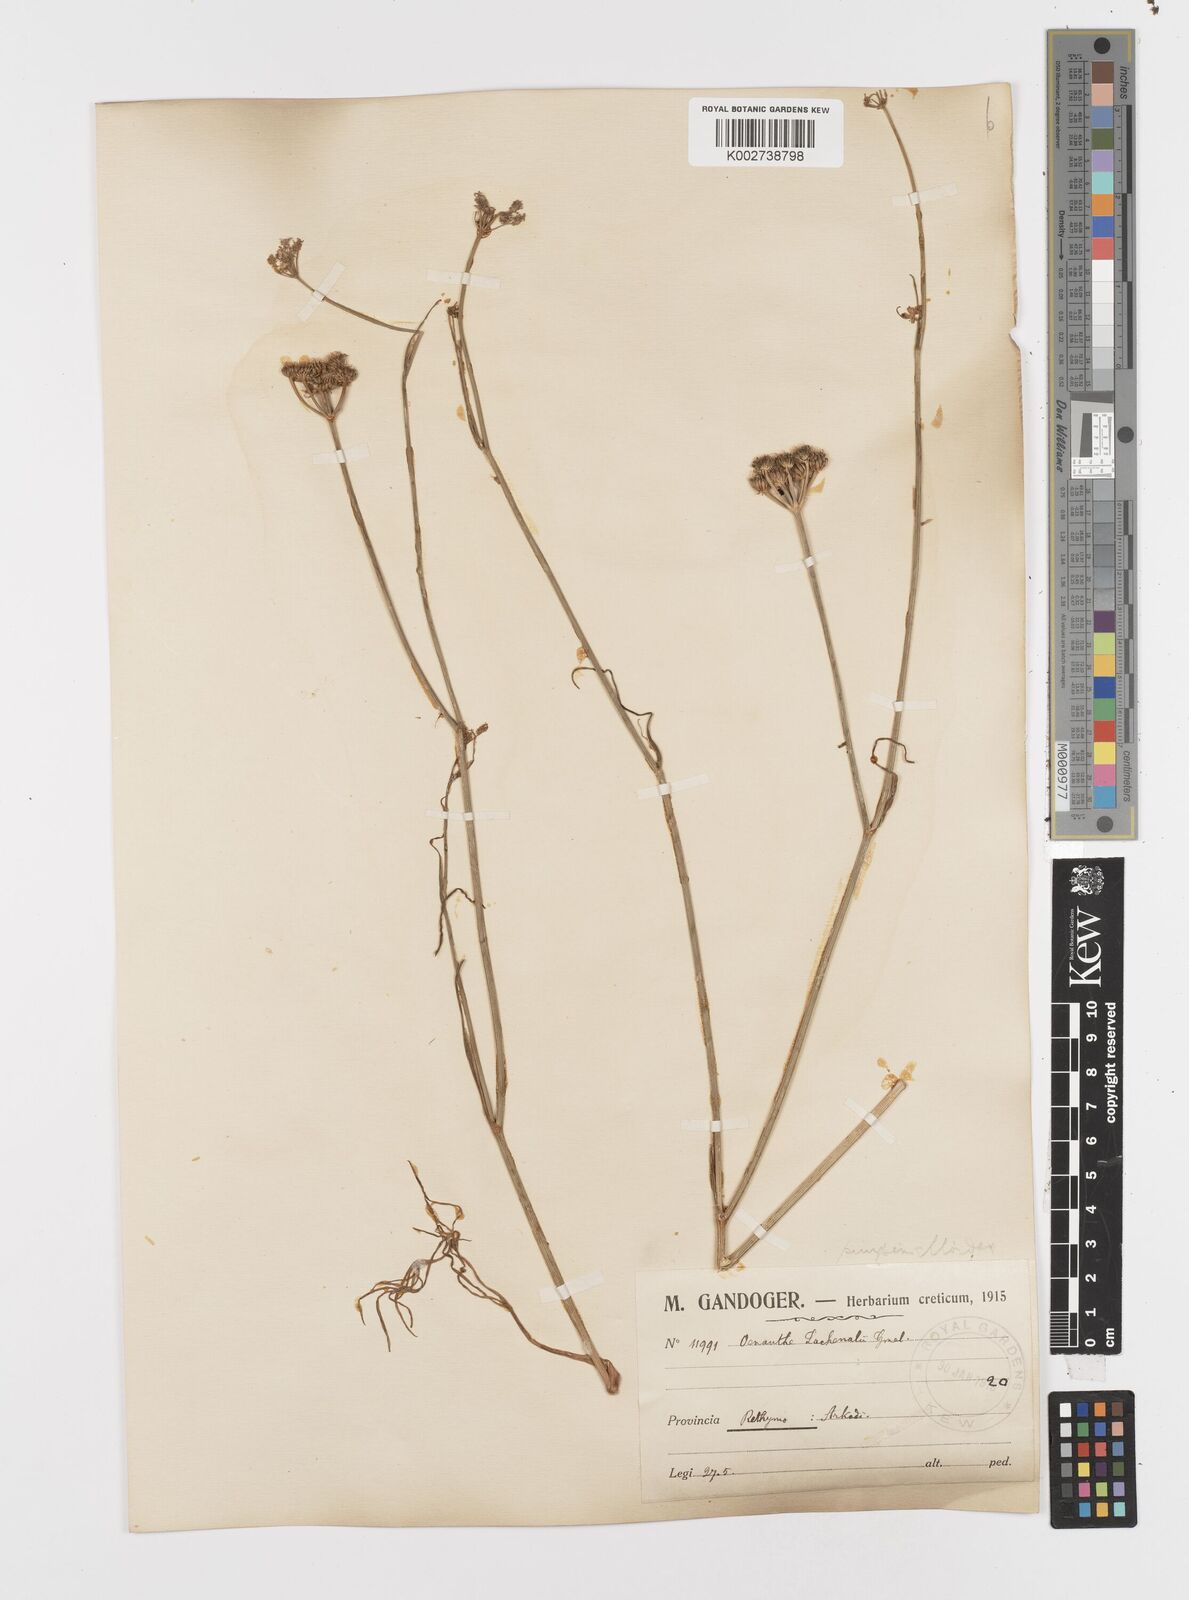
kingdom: Plantae
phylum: Tracheophyta
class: Magnoliopsida
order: Apiales
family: Apiaceae
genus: Oenanthe
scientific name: Oenanthe pimpinelloides
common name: Corky-fruited water-dropwort
